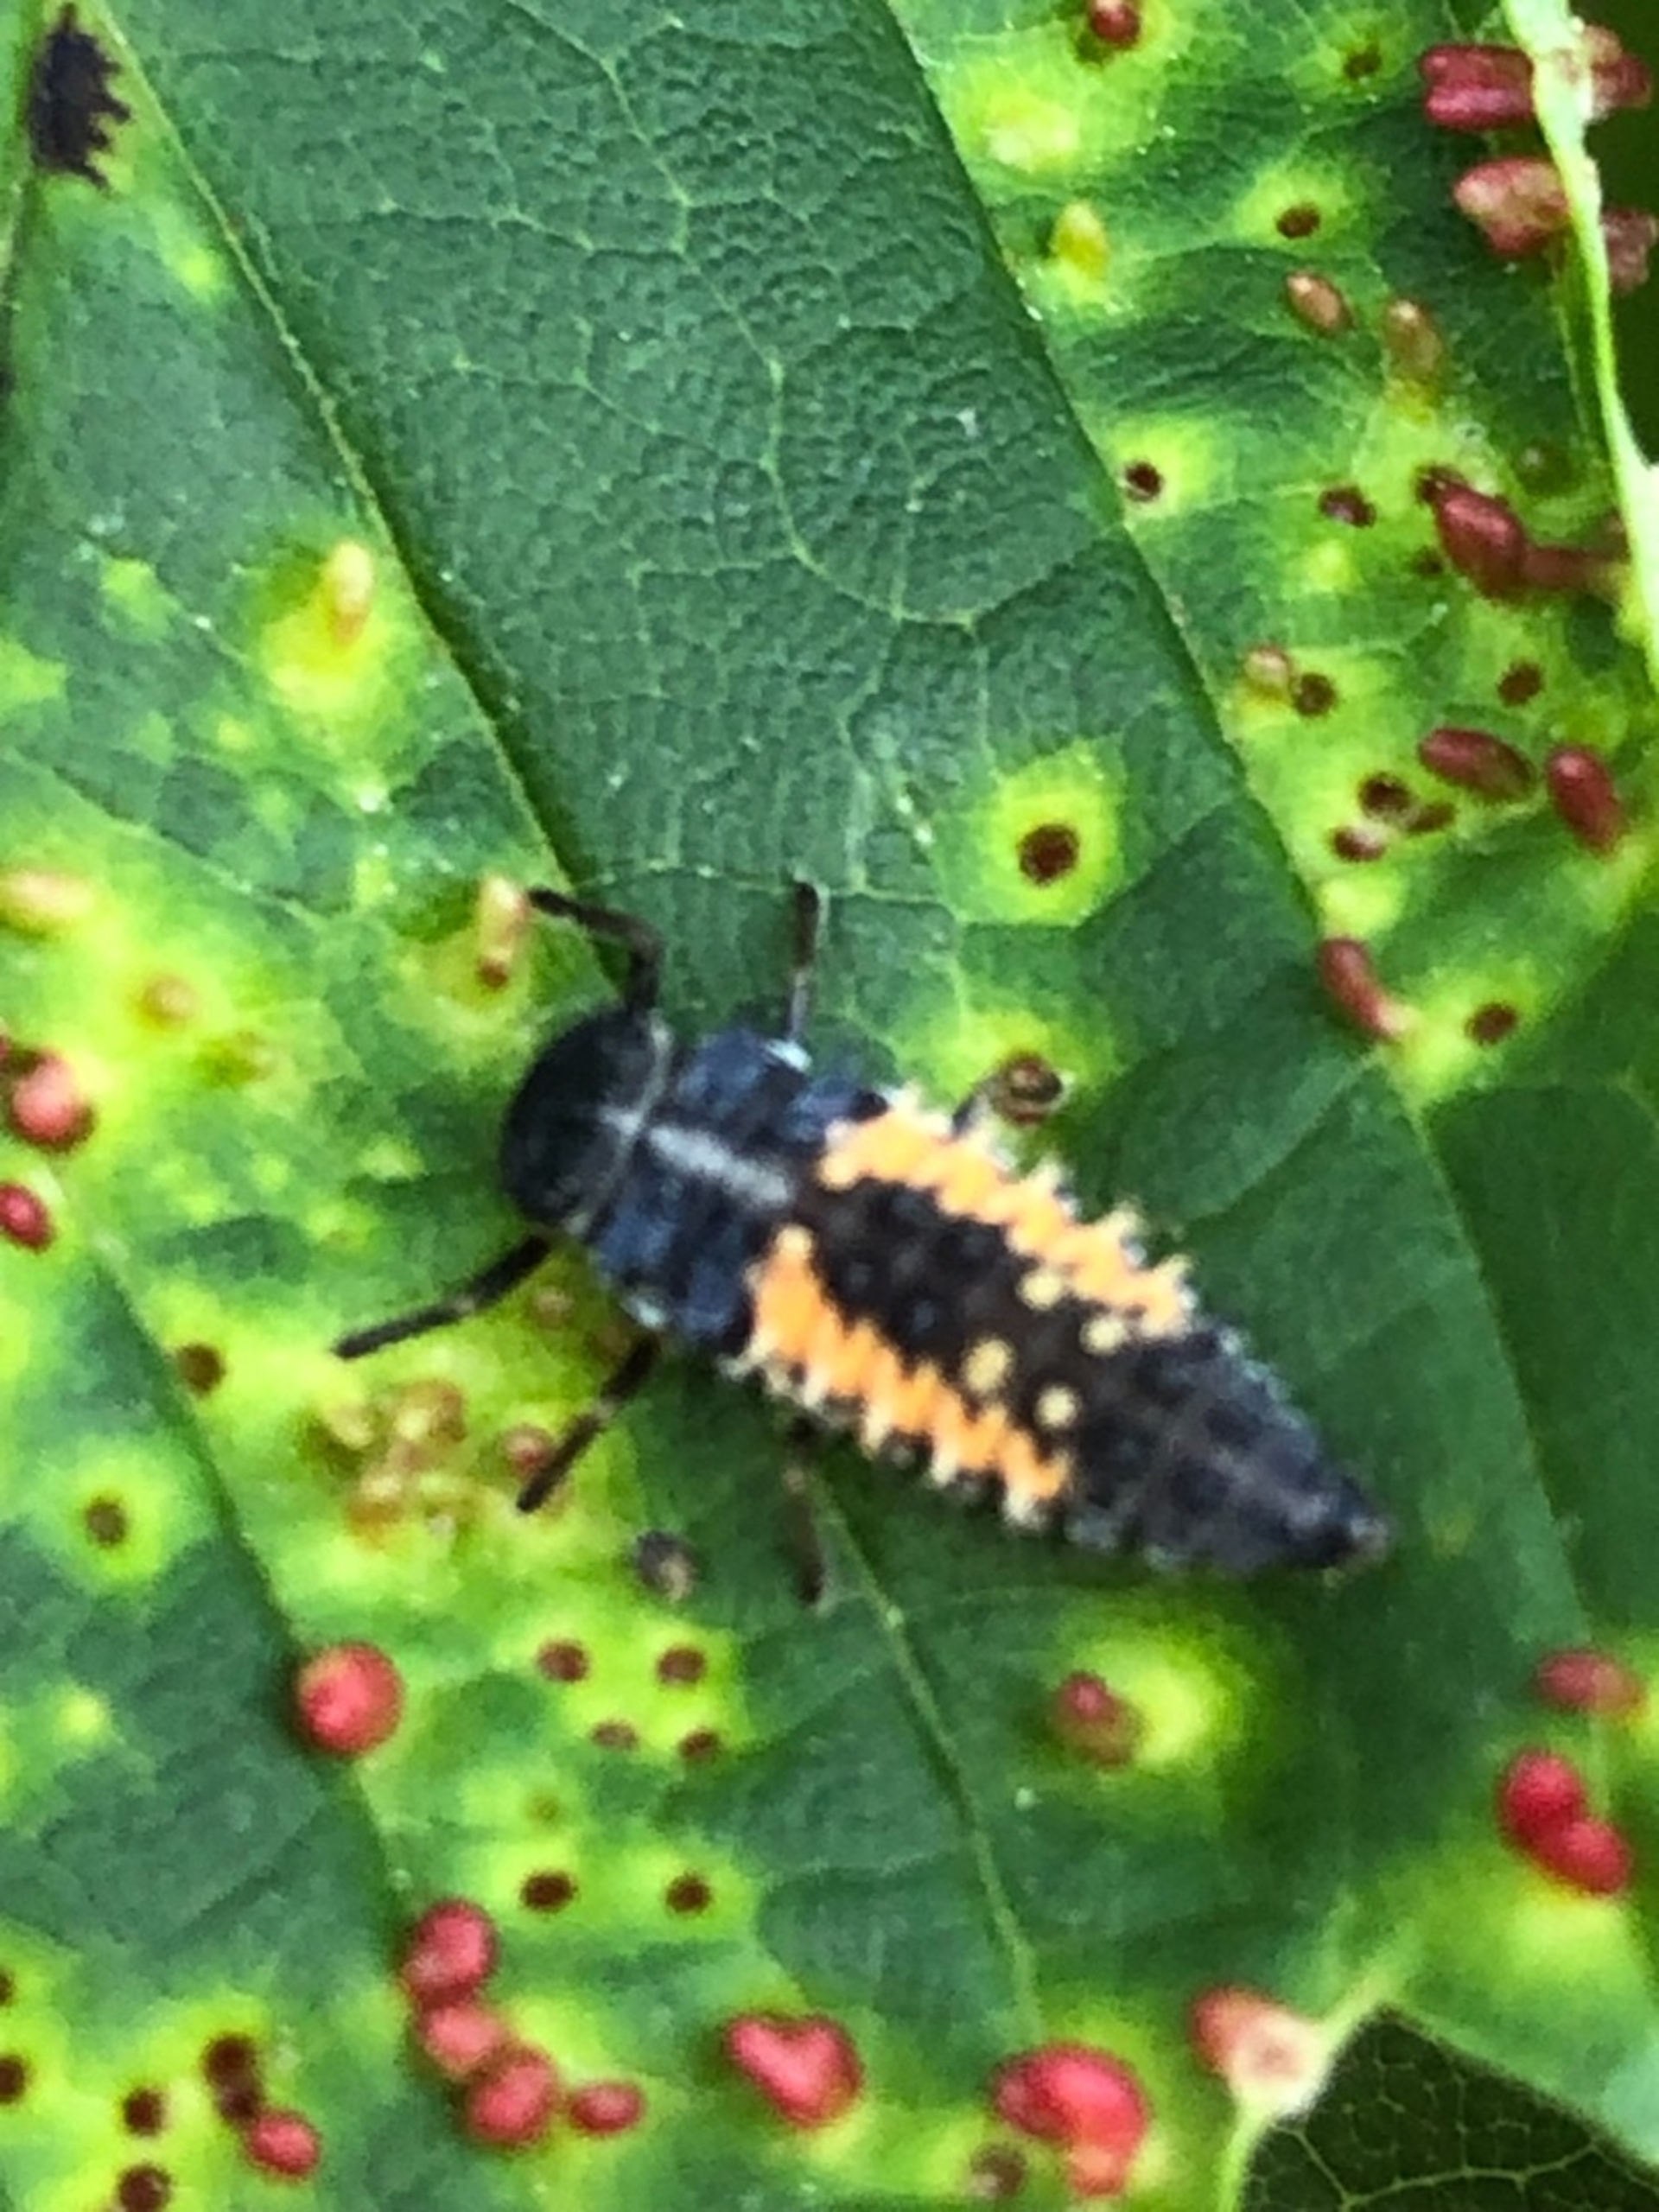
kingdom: Animalia
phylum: Arthropoda
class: Insecta
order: Coleoptera
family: Coccinellidae
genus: Harmonia
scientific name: Harmonia axyridis
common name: Harlekinmariehøne
